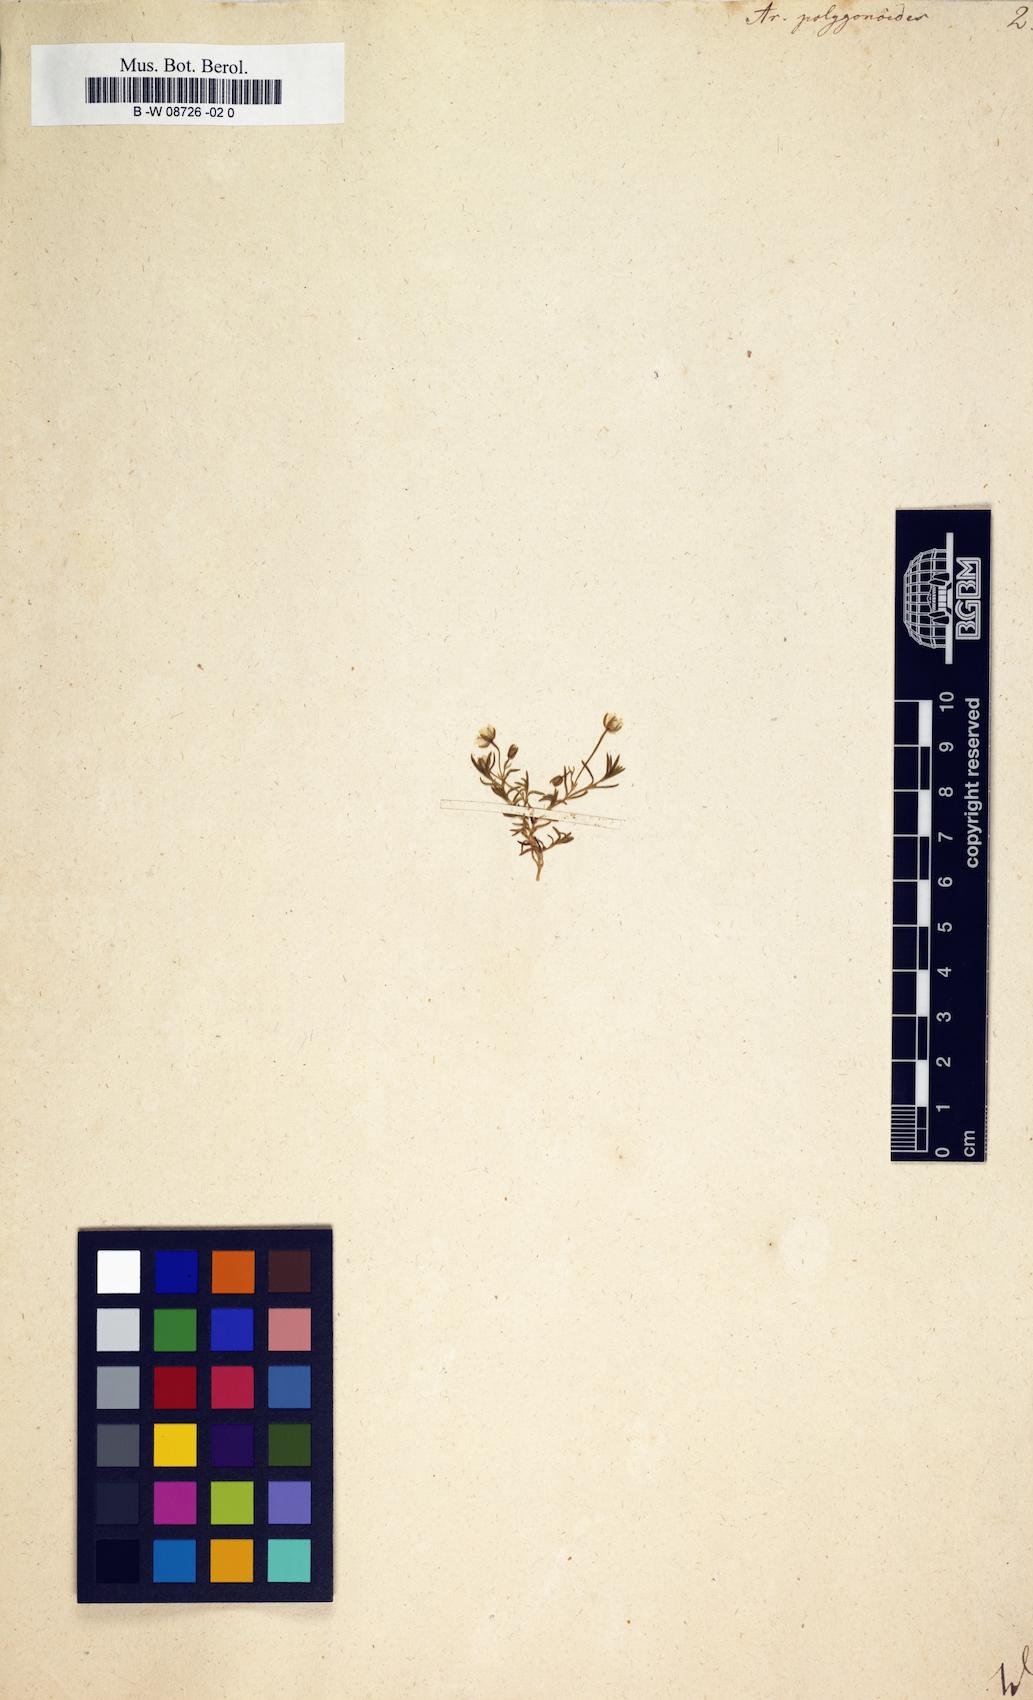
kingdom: Plantae
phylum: Tracheophyta
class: Magnoliopsida
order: Caryophyllales
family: Caryophyllaceae
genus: Moehringia
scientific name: Moehringia ciliata
